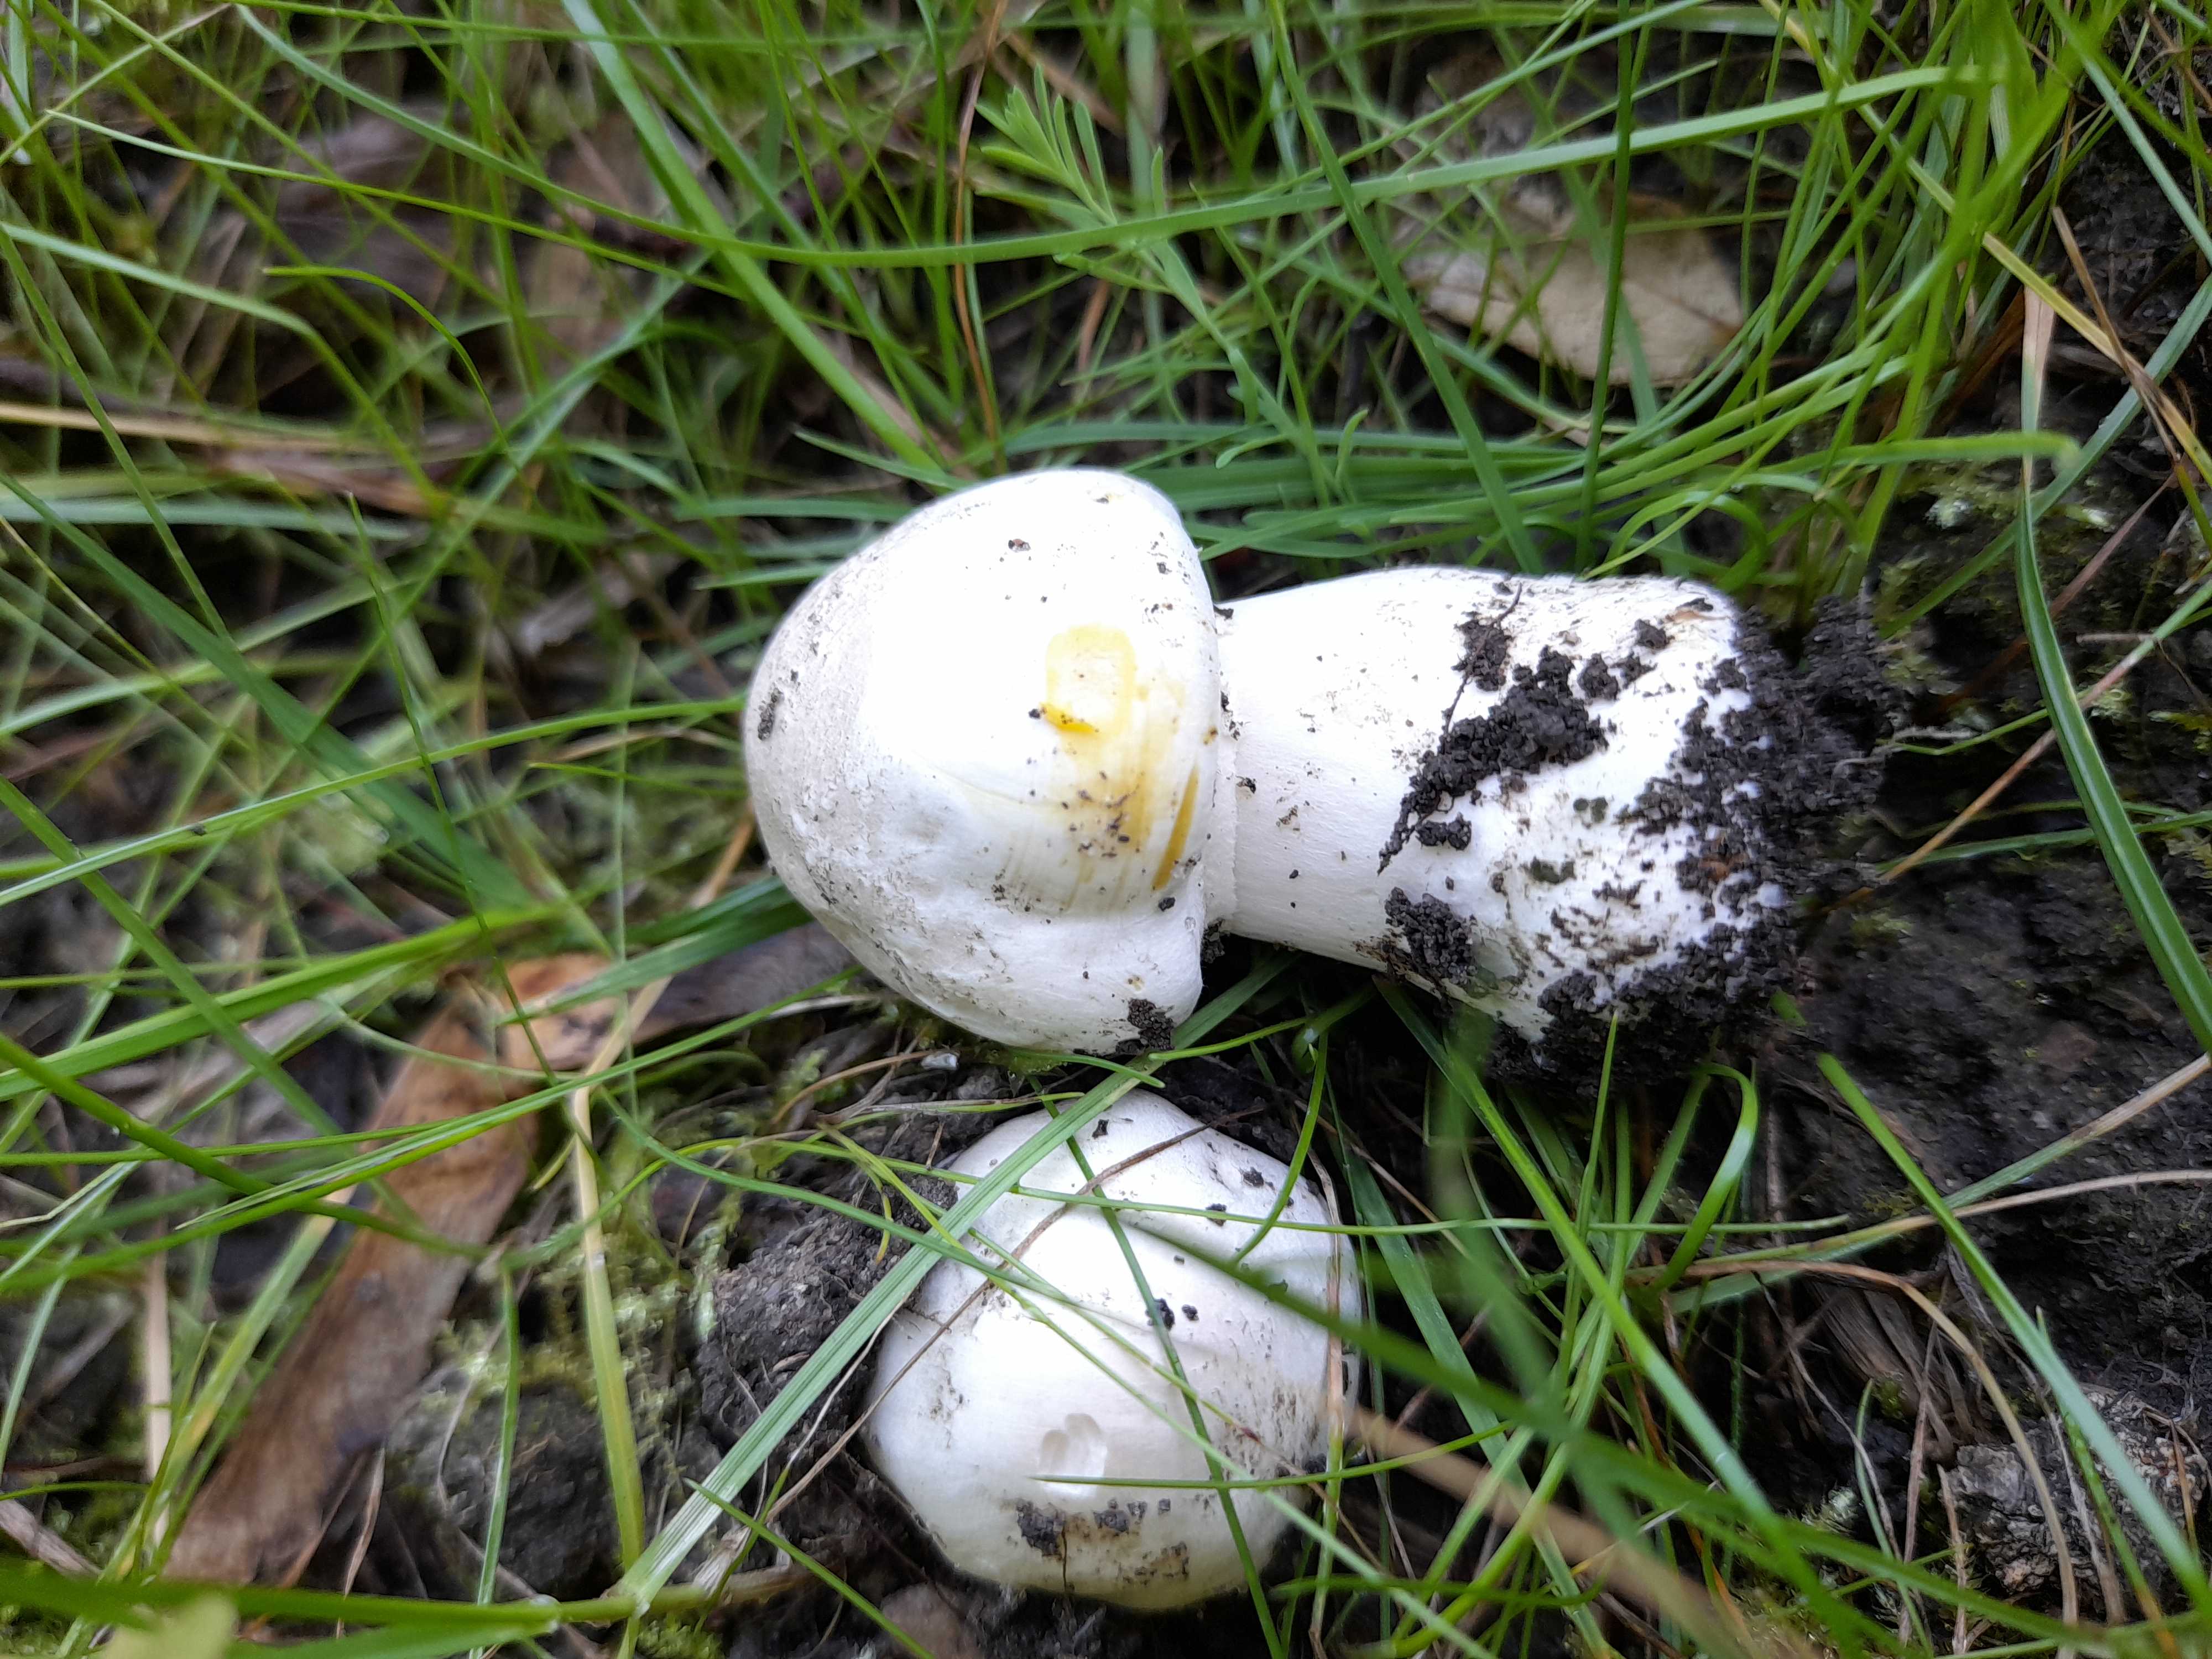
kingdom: Fungi
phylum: Basidiomycota
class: Agaricomycetes
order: Agaricales
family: Agaricaceae
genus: Agaricus
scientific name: Agaricus xanthodermus
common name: karbol-champignon
